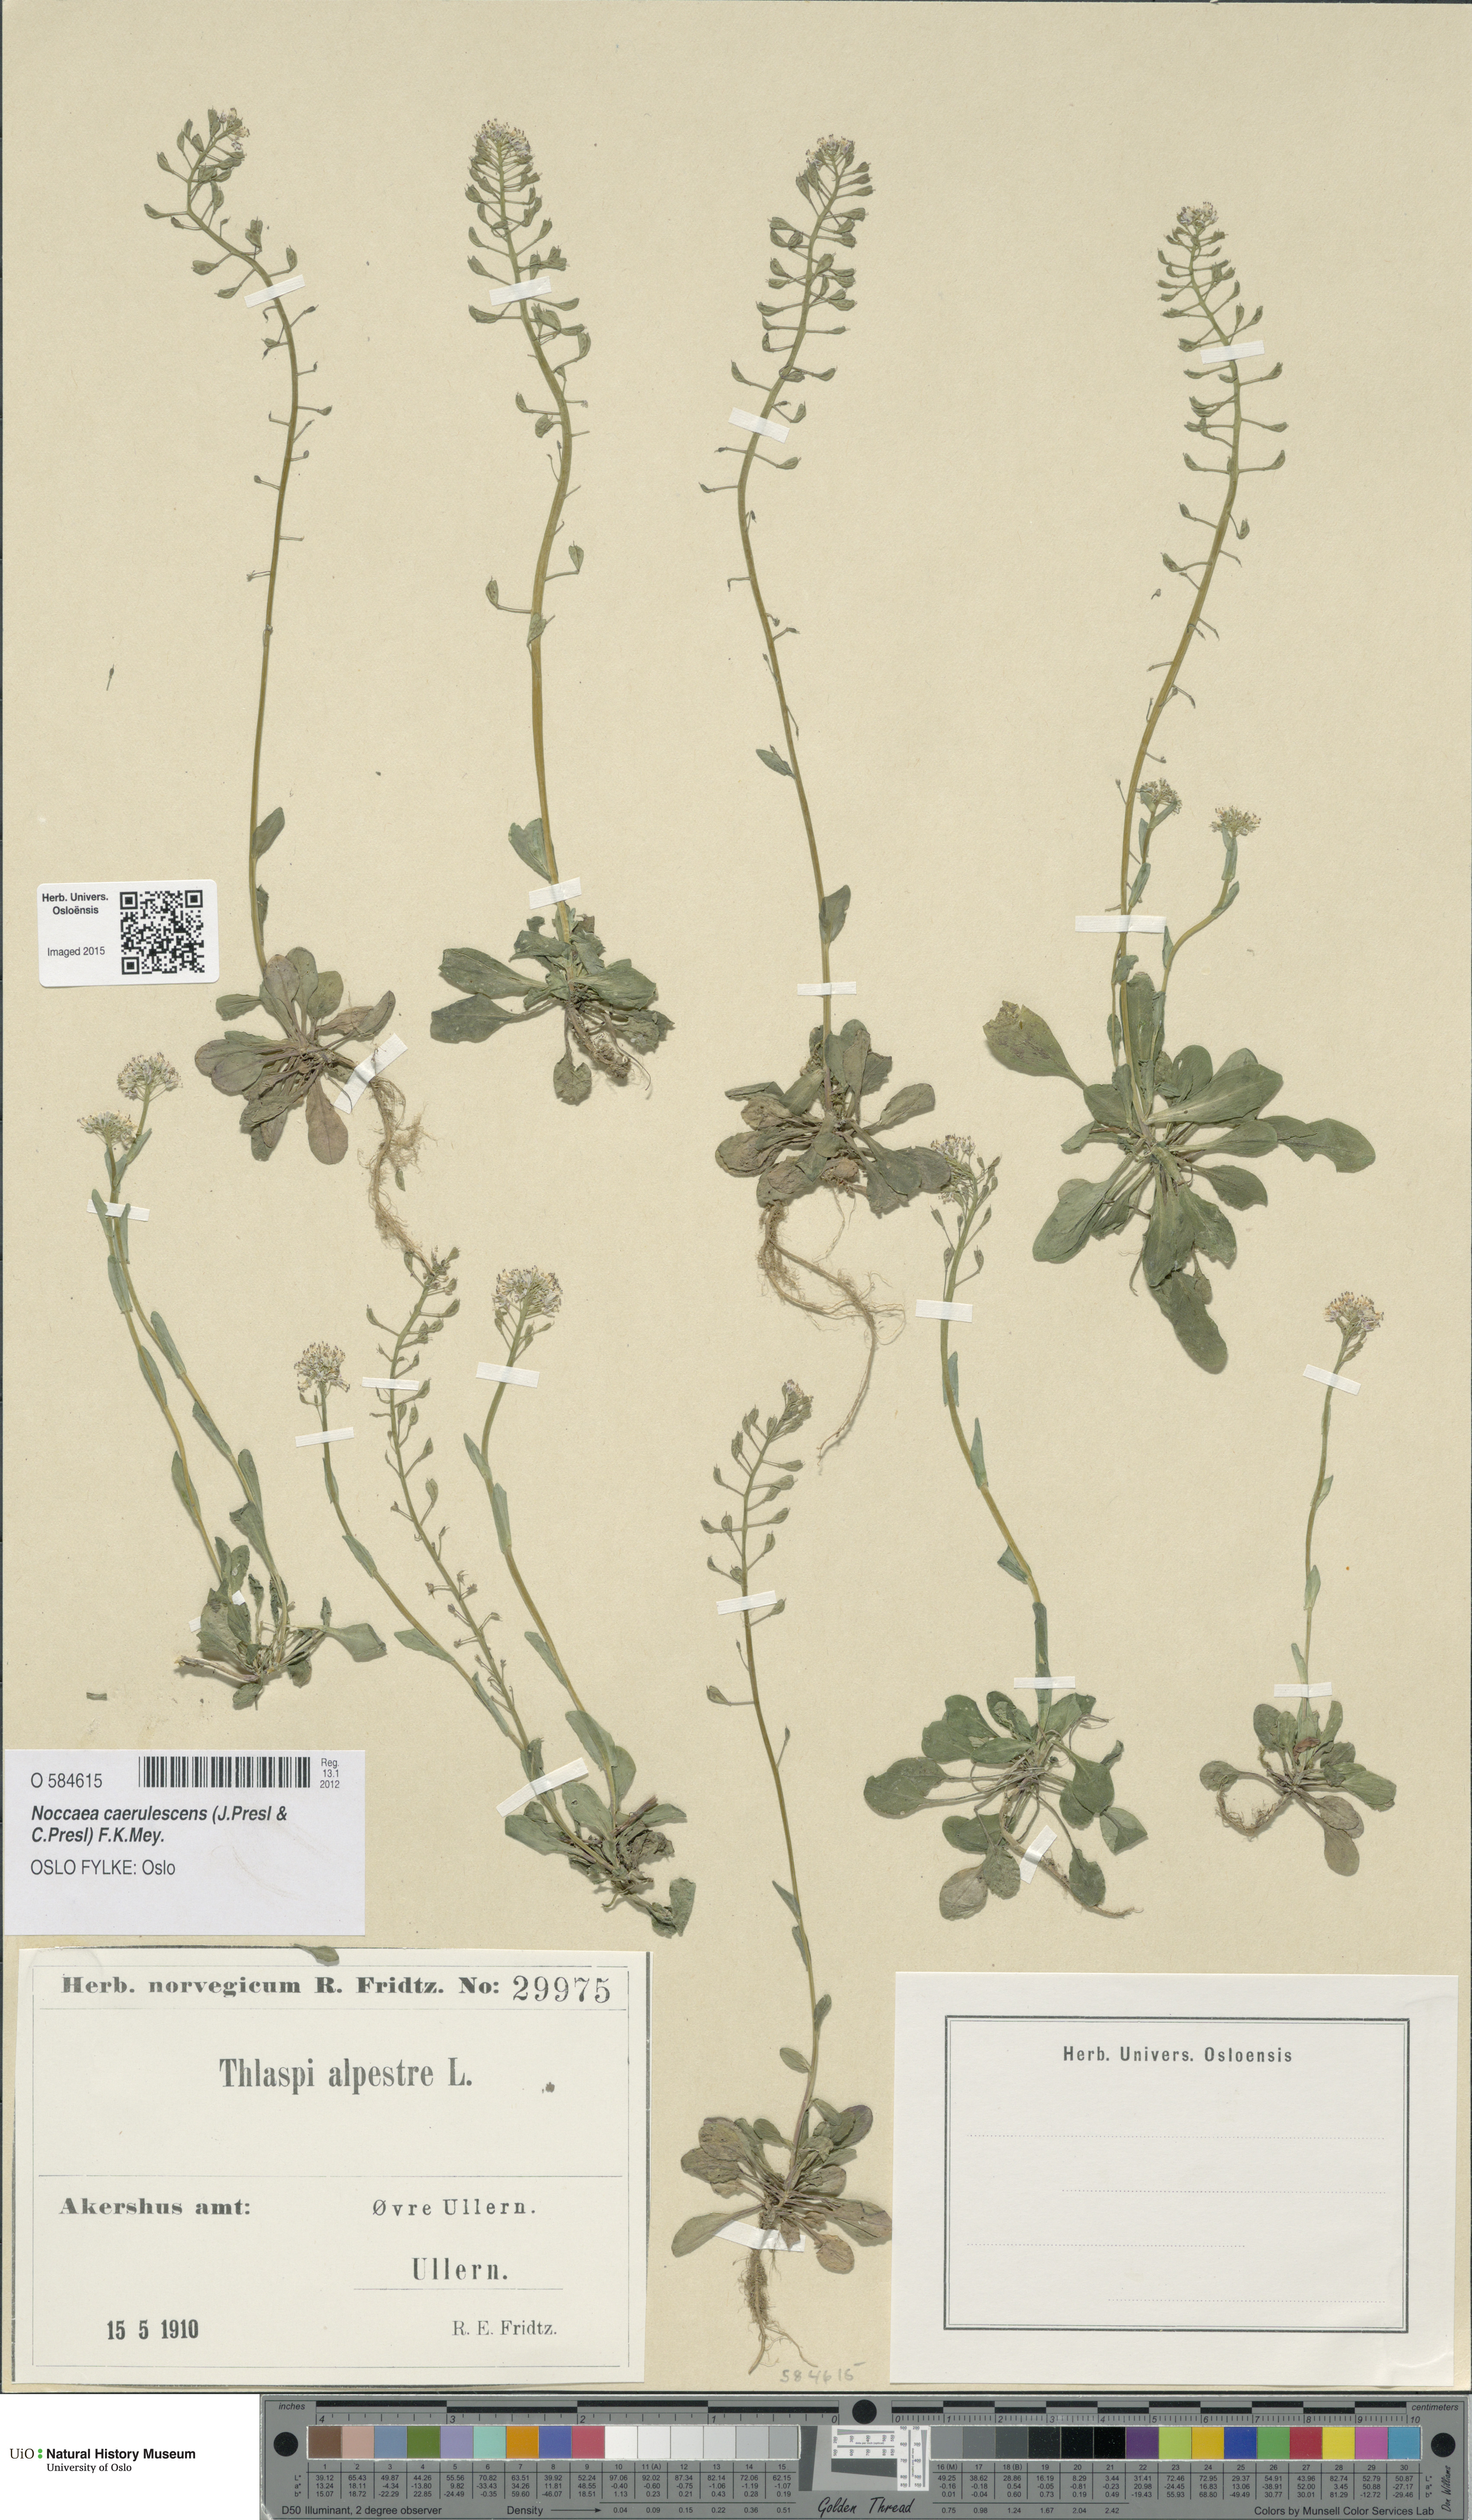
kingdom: Plantae
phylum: Tracheophyta
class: Magnoliopsida
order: Brassicales
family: Brassicaceae
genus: Noccaea
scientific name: Noccaea caerulescens
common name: Alpine pennycress
